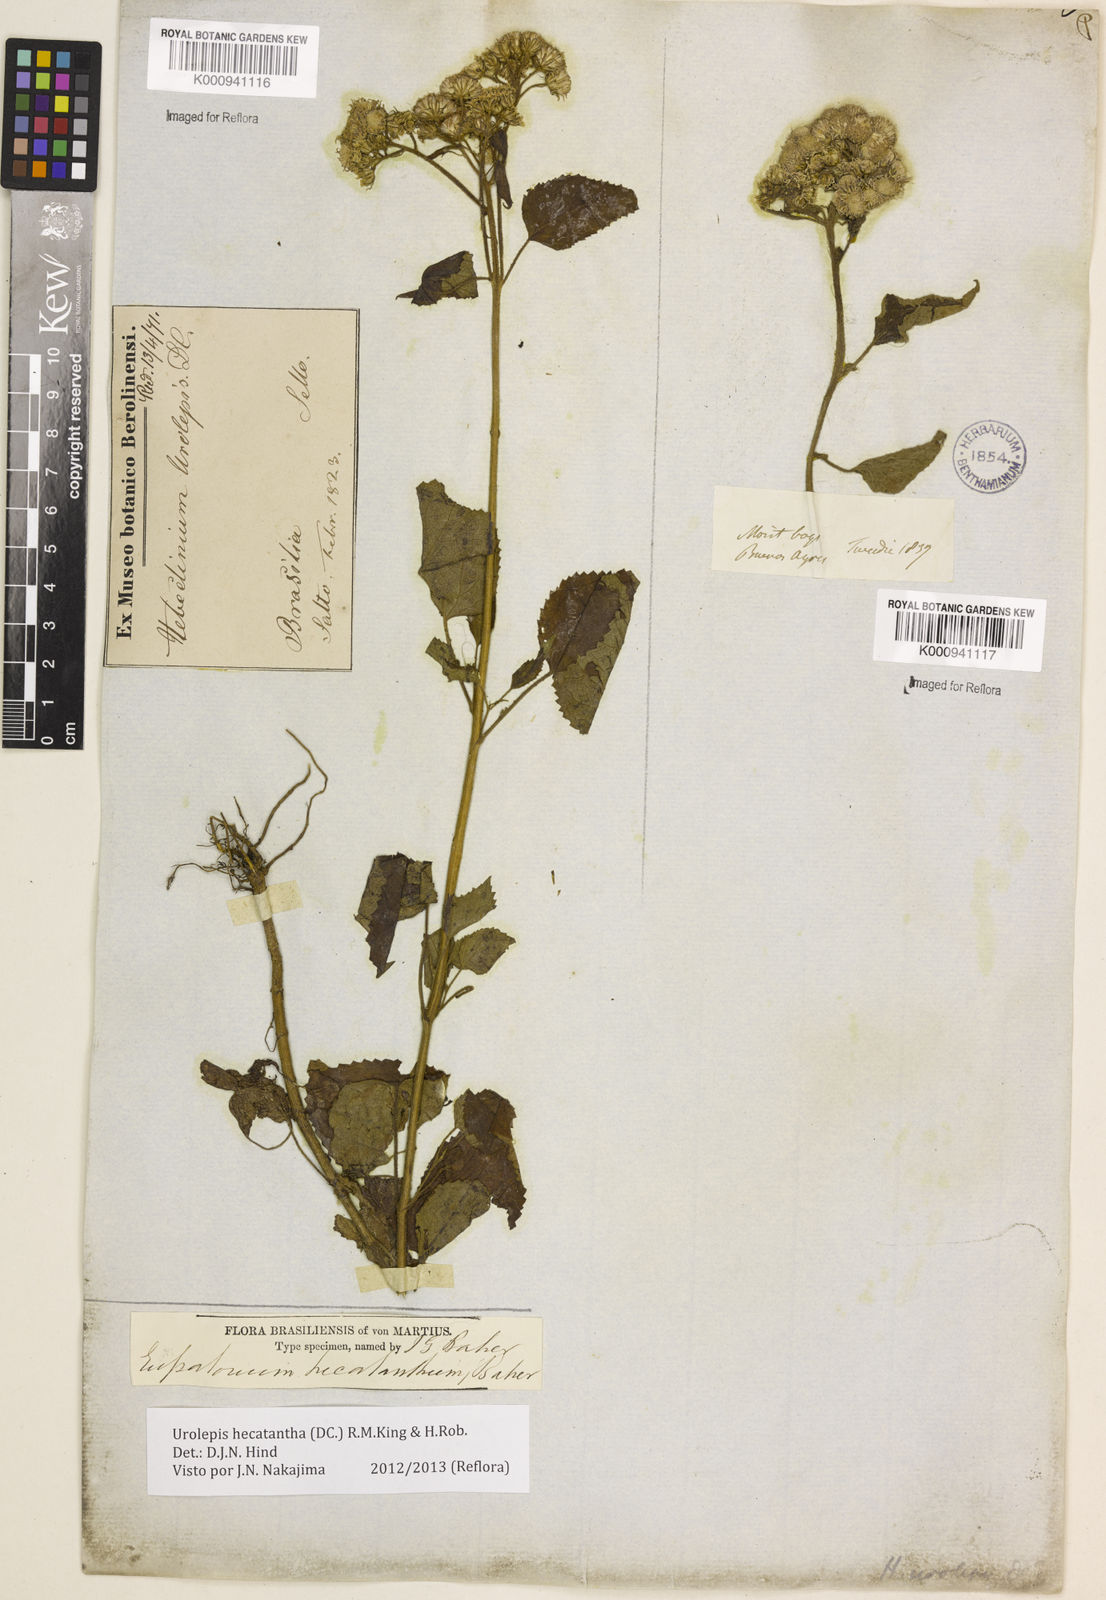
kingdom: Plantae
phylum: Tracheophyta
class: Magnoliopsida
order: Asterales
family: Asteraceae
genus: Urolepis
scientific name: Urolepis hecatantha
